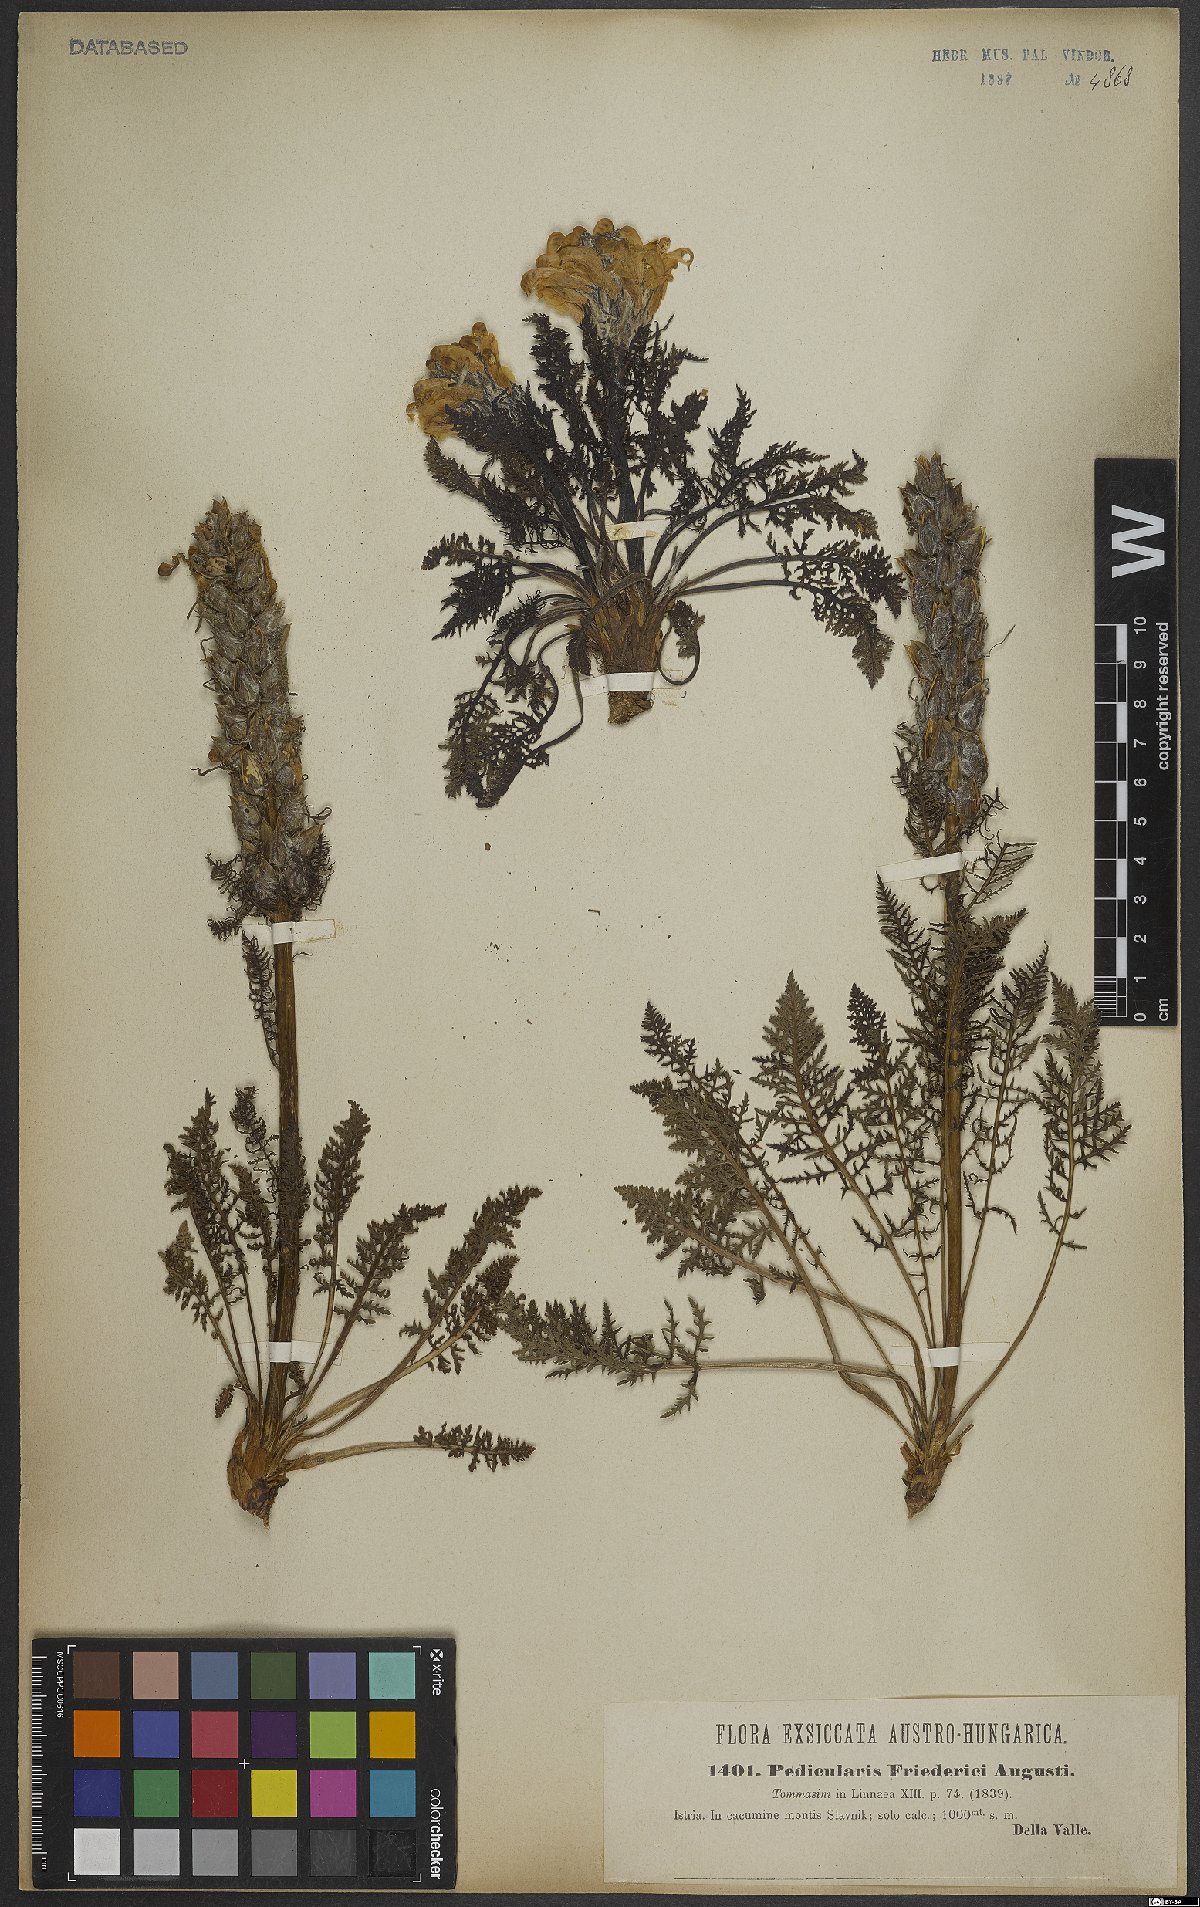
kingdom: Plantae
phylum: Tracheophyta
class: Magnoliopsida
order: Lamiales
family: Orobanchaceae
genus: Pedicularis
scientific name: Pedicularis friderici-augusti
